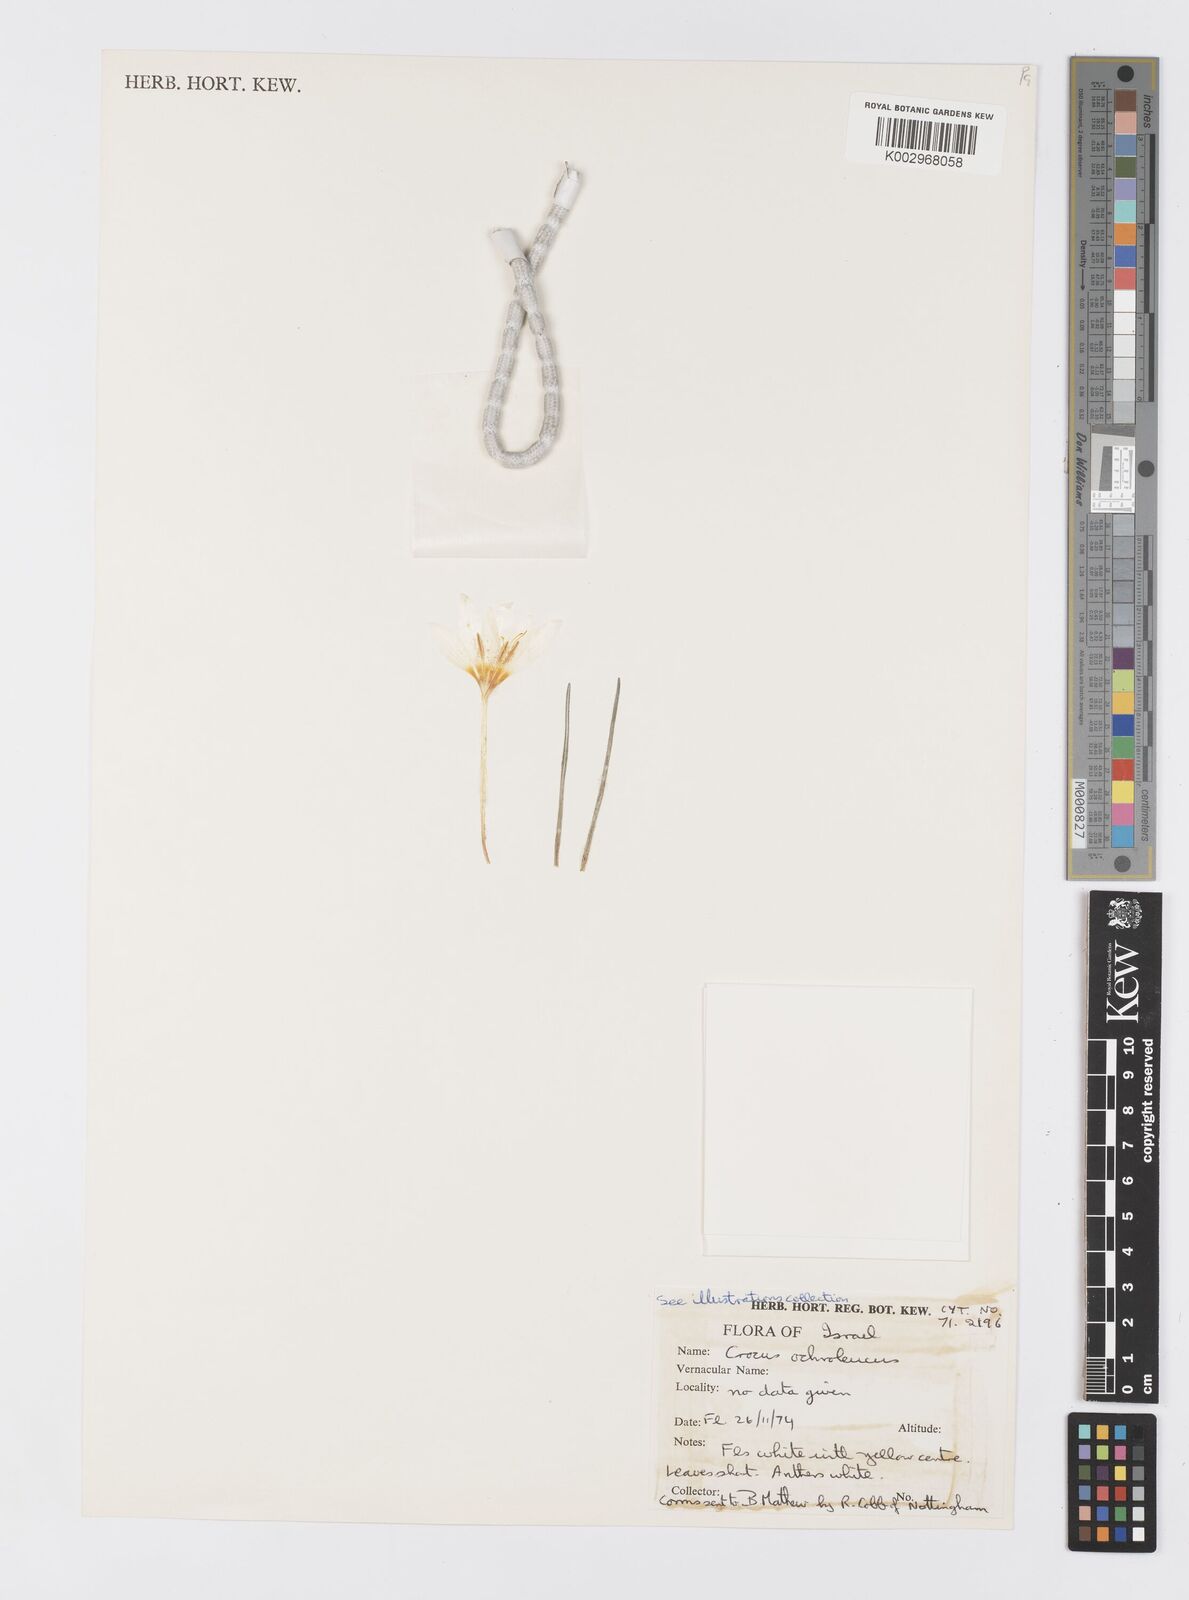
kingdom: Plantae
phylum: Tracheophyta
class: Liliopsida
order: Asparagales
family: Iridaceae
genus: Crocus
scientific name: Crocus ochroleucus
